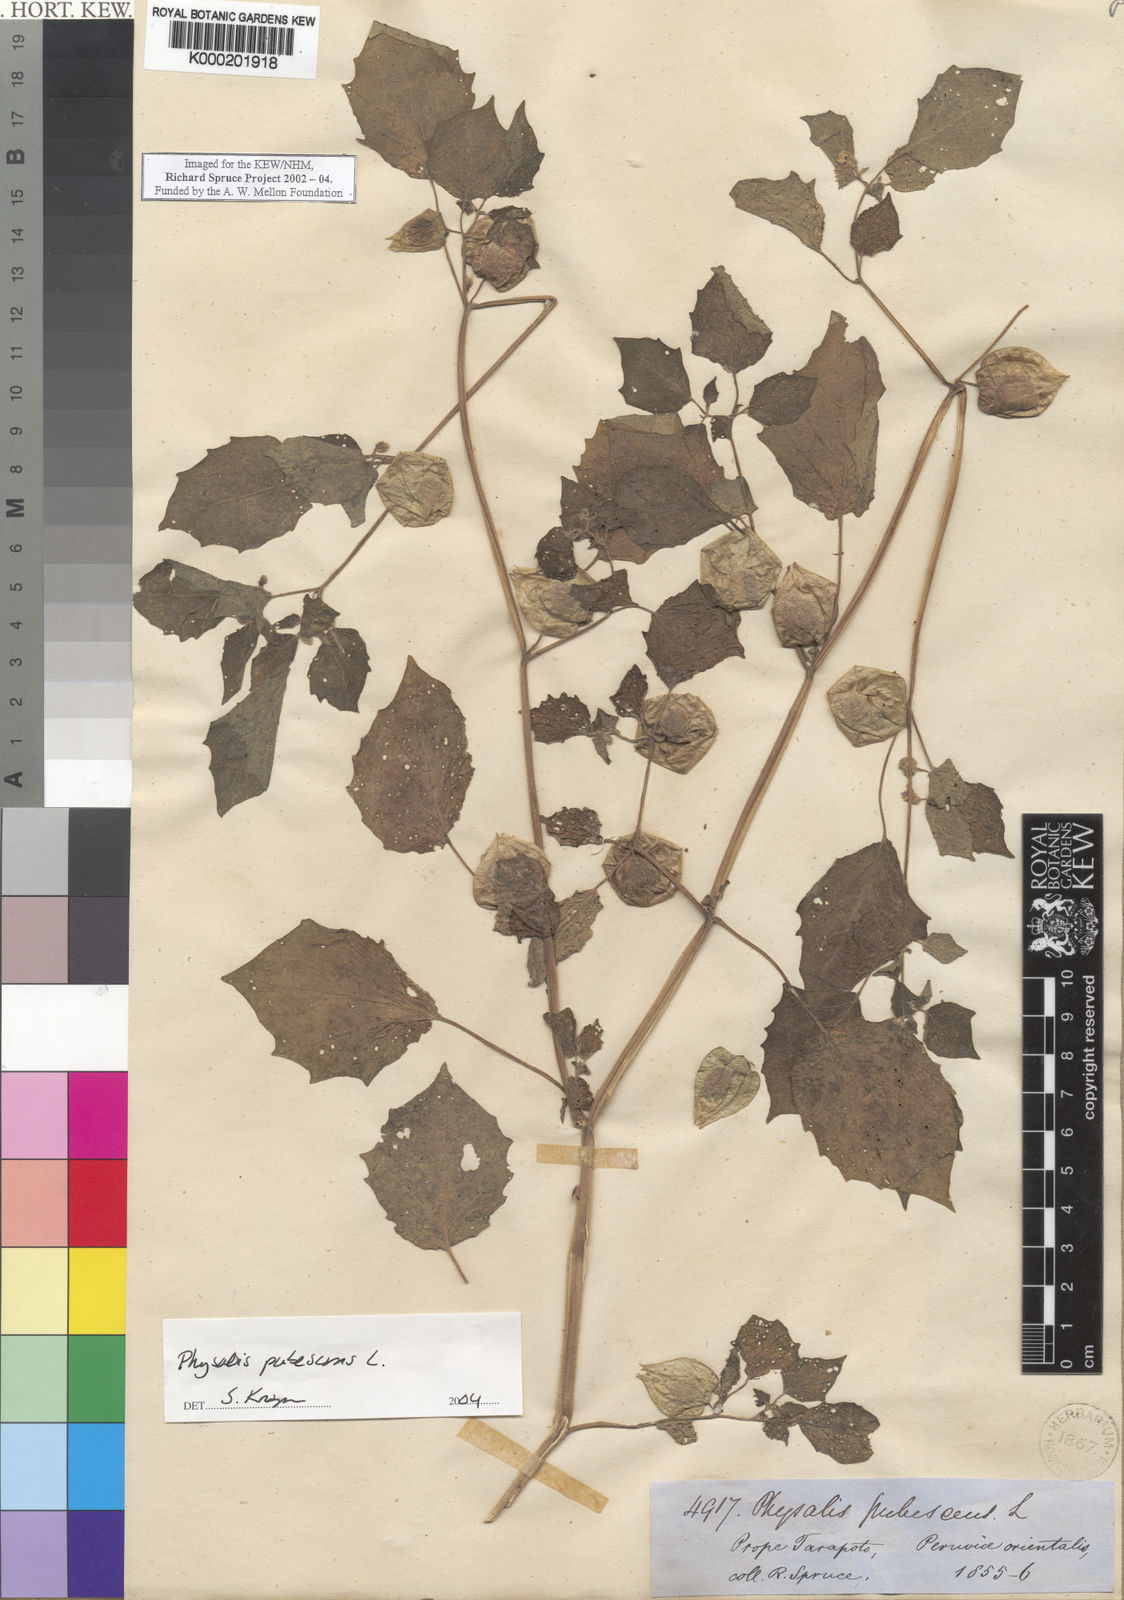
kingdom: Plantae
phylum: Tracheophyta
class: Magnoliopsida
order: Solanales
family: Solanaceae
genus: Physalis
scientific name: Physalis pubescens
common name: Downy ground-cherry
